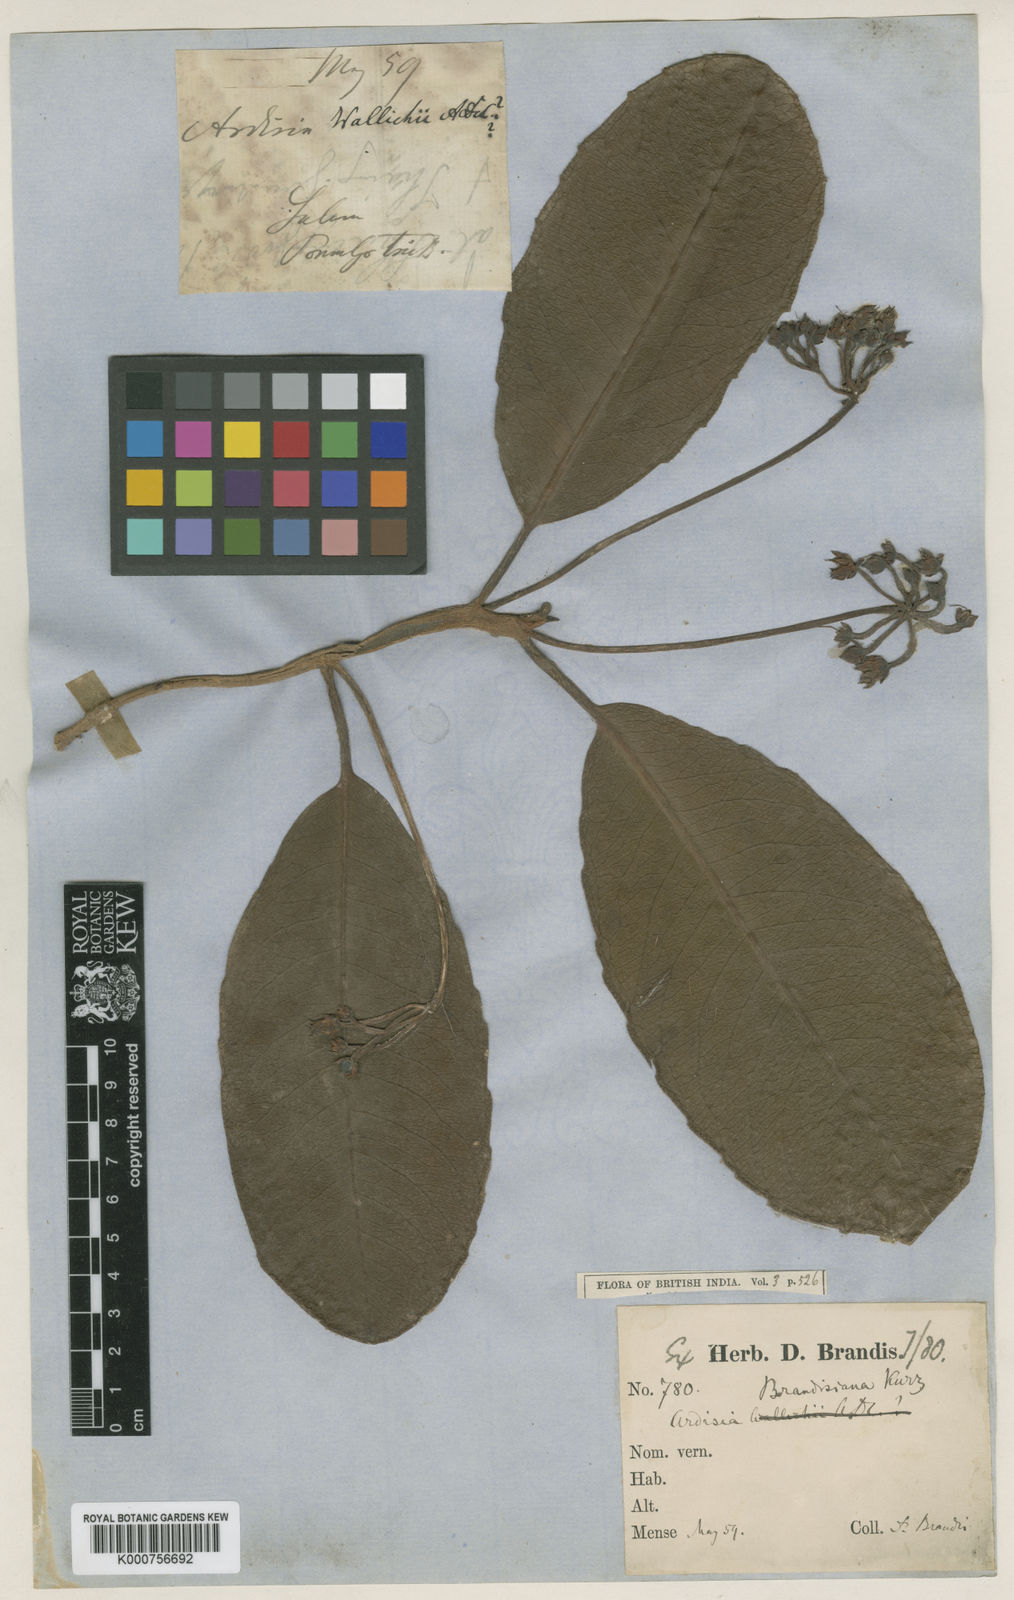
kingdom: Plantae
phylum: Tracheophyta
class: Magnoliopsida
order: Ericales
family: Primulaceae
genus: Ardisia
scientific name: Ardisia brandisiana
